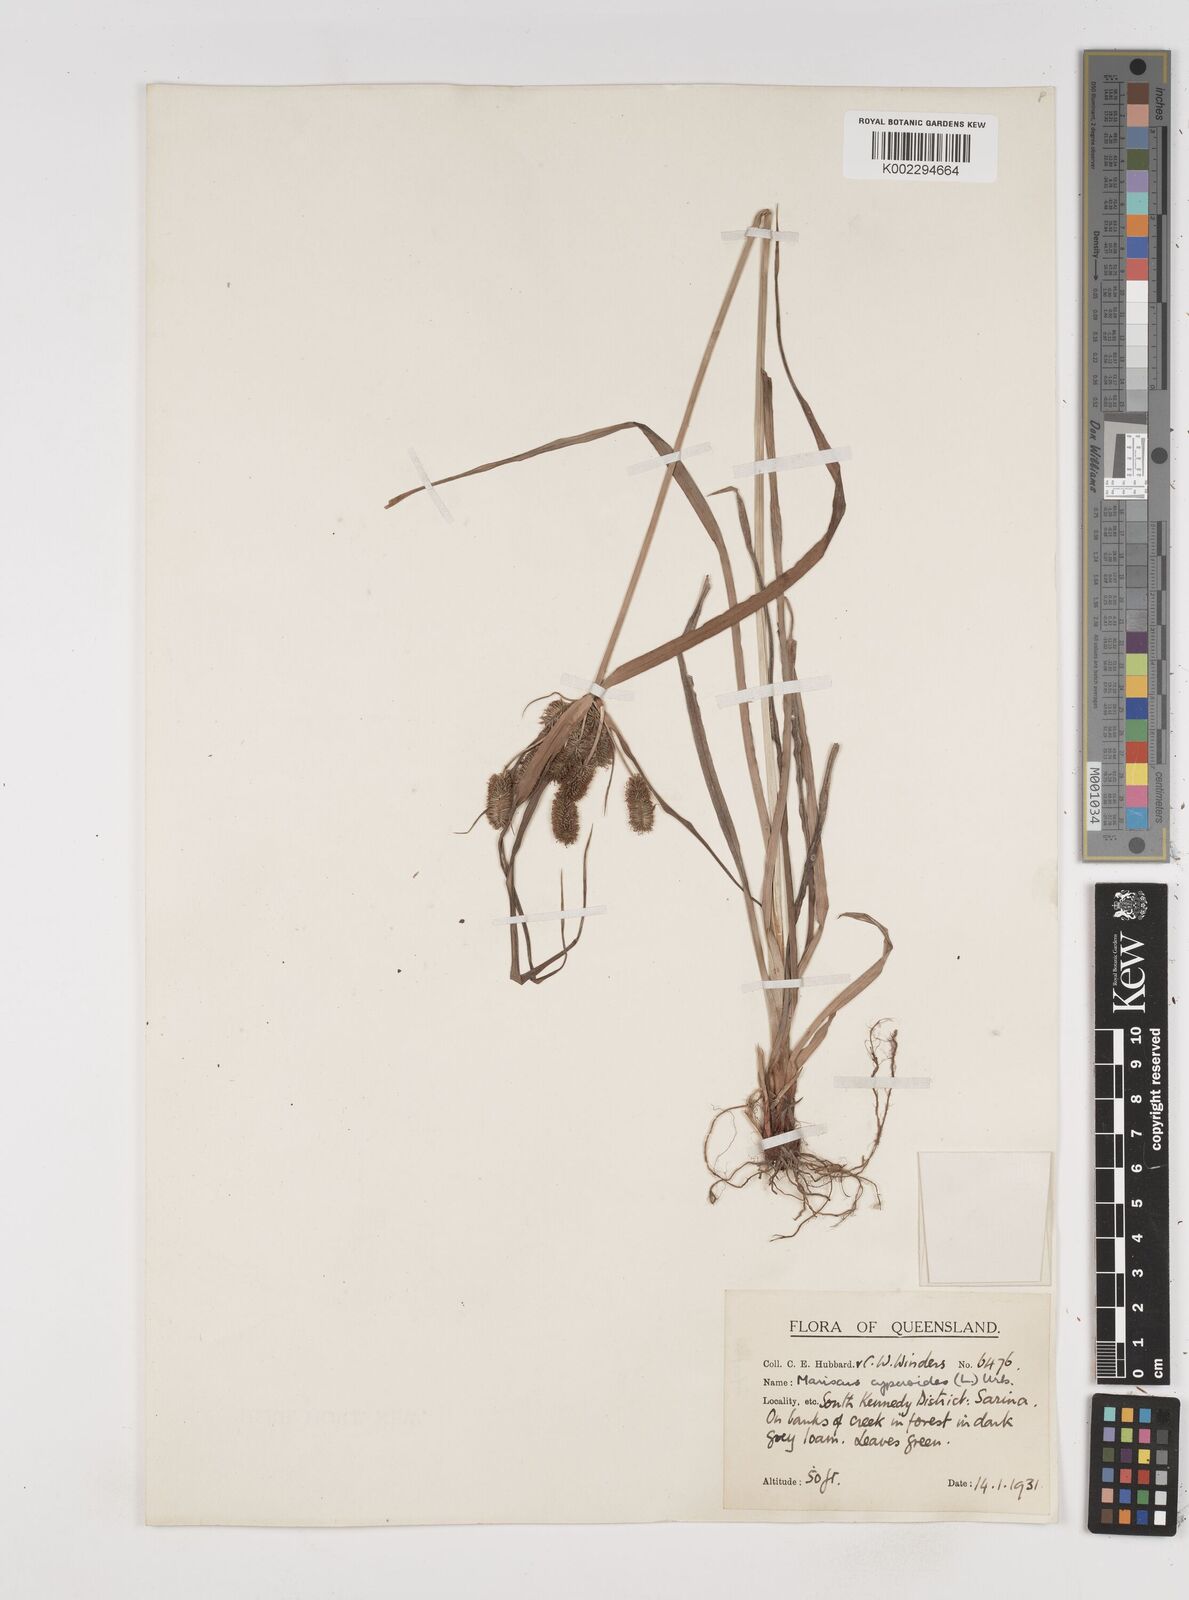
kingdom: Plantae
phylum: Tracheophyta
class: Liliopsida
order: Poales
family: Cyperaceae
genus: Cyperus
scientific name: Cyperus cyperoides
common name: Pacific island flat sedge
